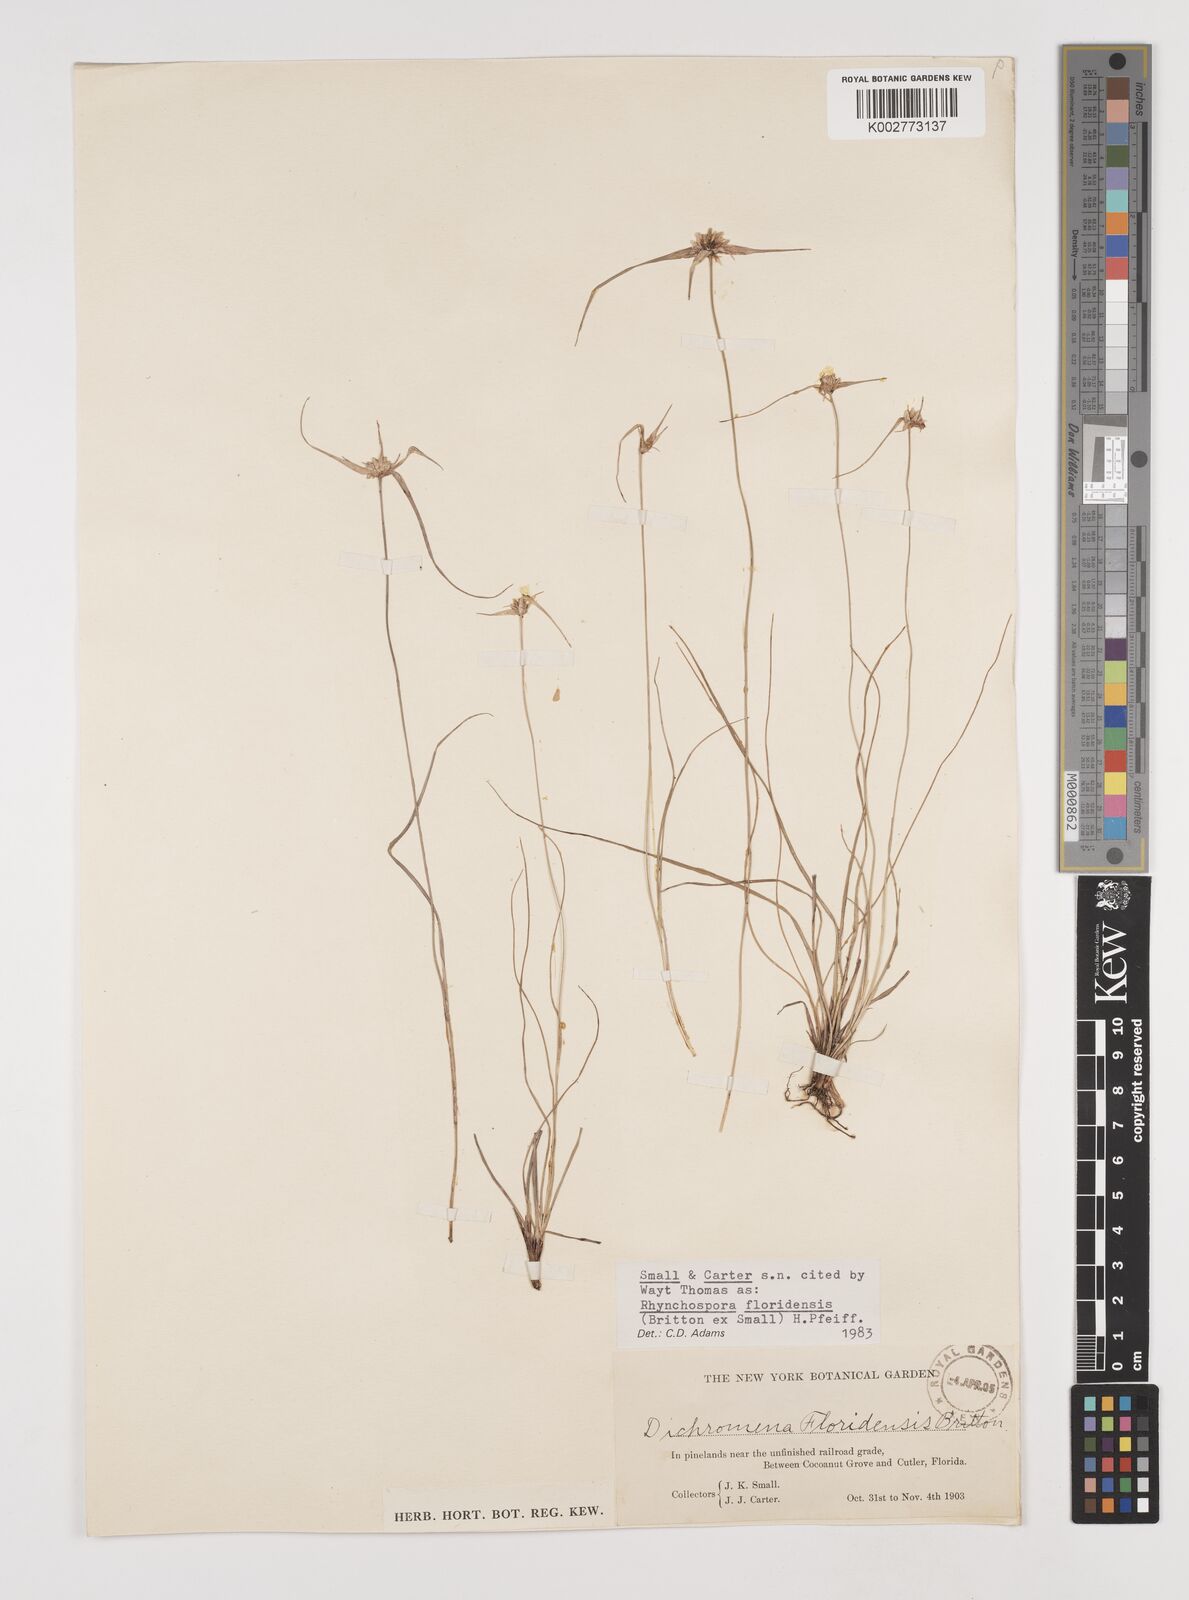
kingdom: Plantae
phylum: Tracheophyta
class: Liliopsida
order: Poales
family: Cyperaceae
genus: Rhynchospora
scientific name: Rhynchospora floridensis
